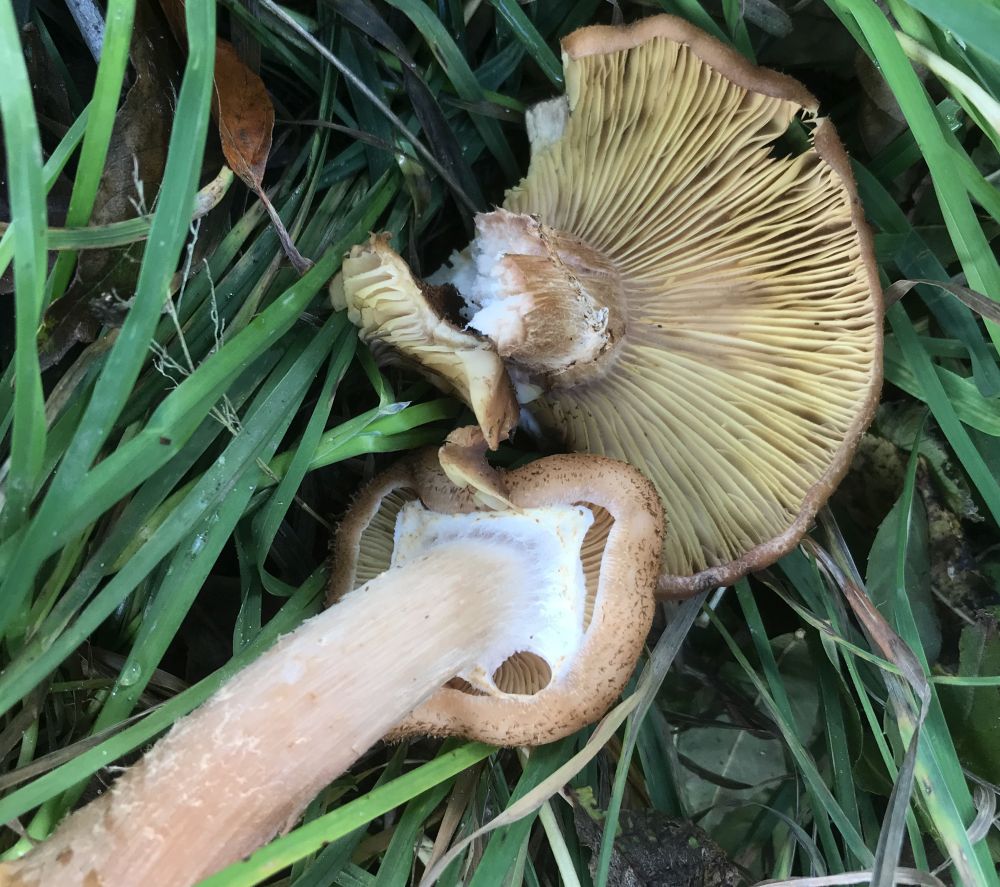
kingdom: Fungi
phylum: Basidiomycota
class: Agaricomycetes
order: Agaricales
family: Physalacriaceae
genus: Armillaria
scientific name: Armillaria lutea
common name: køllestokket honningsvamp
